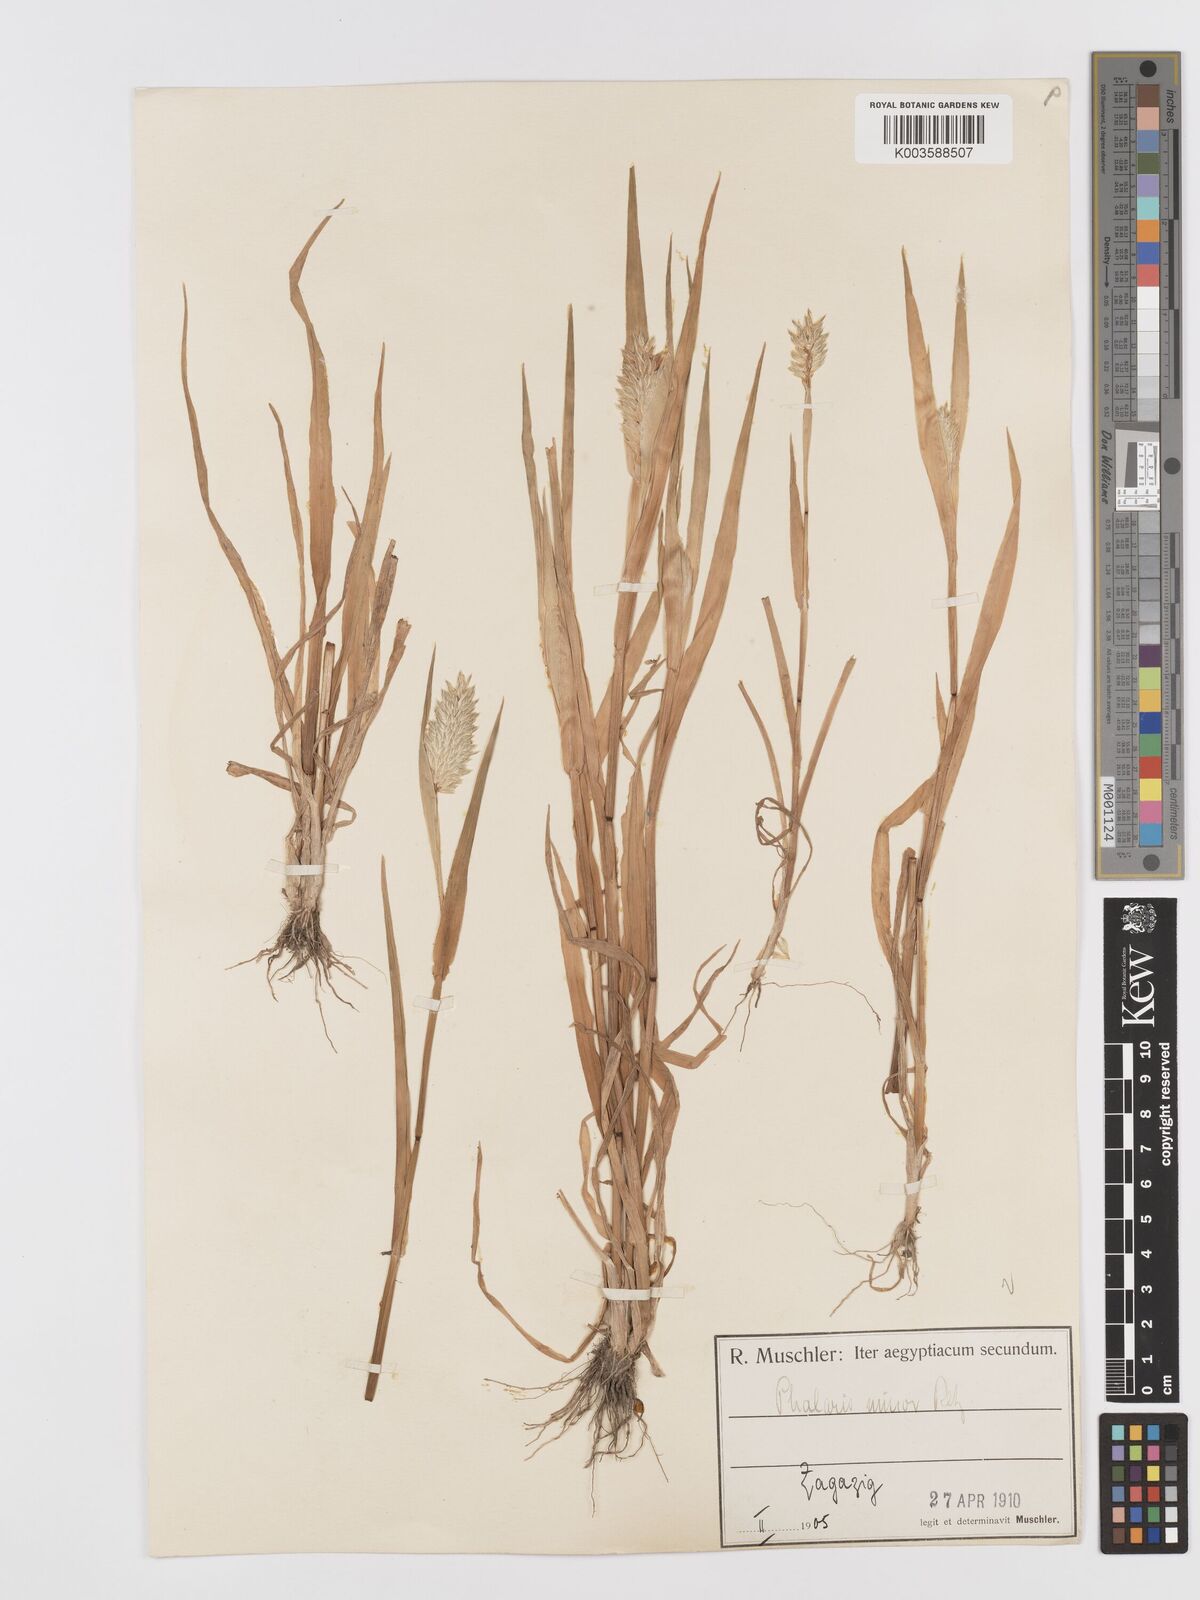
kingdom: Plantae
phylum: Tracheophyta
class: Liliopsida
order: Poales
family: Poaceae
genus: Phalaris
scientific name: Phalaris minor
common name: Littleseed canarygrass
